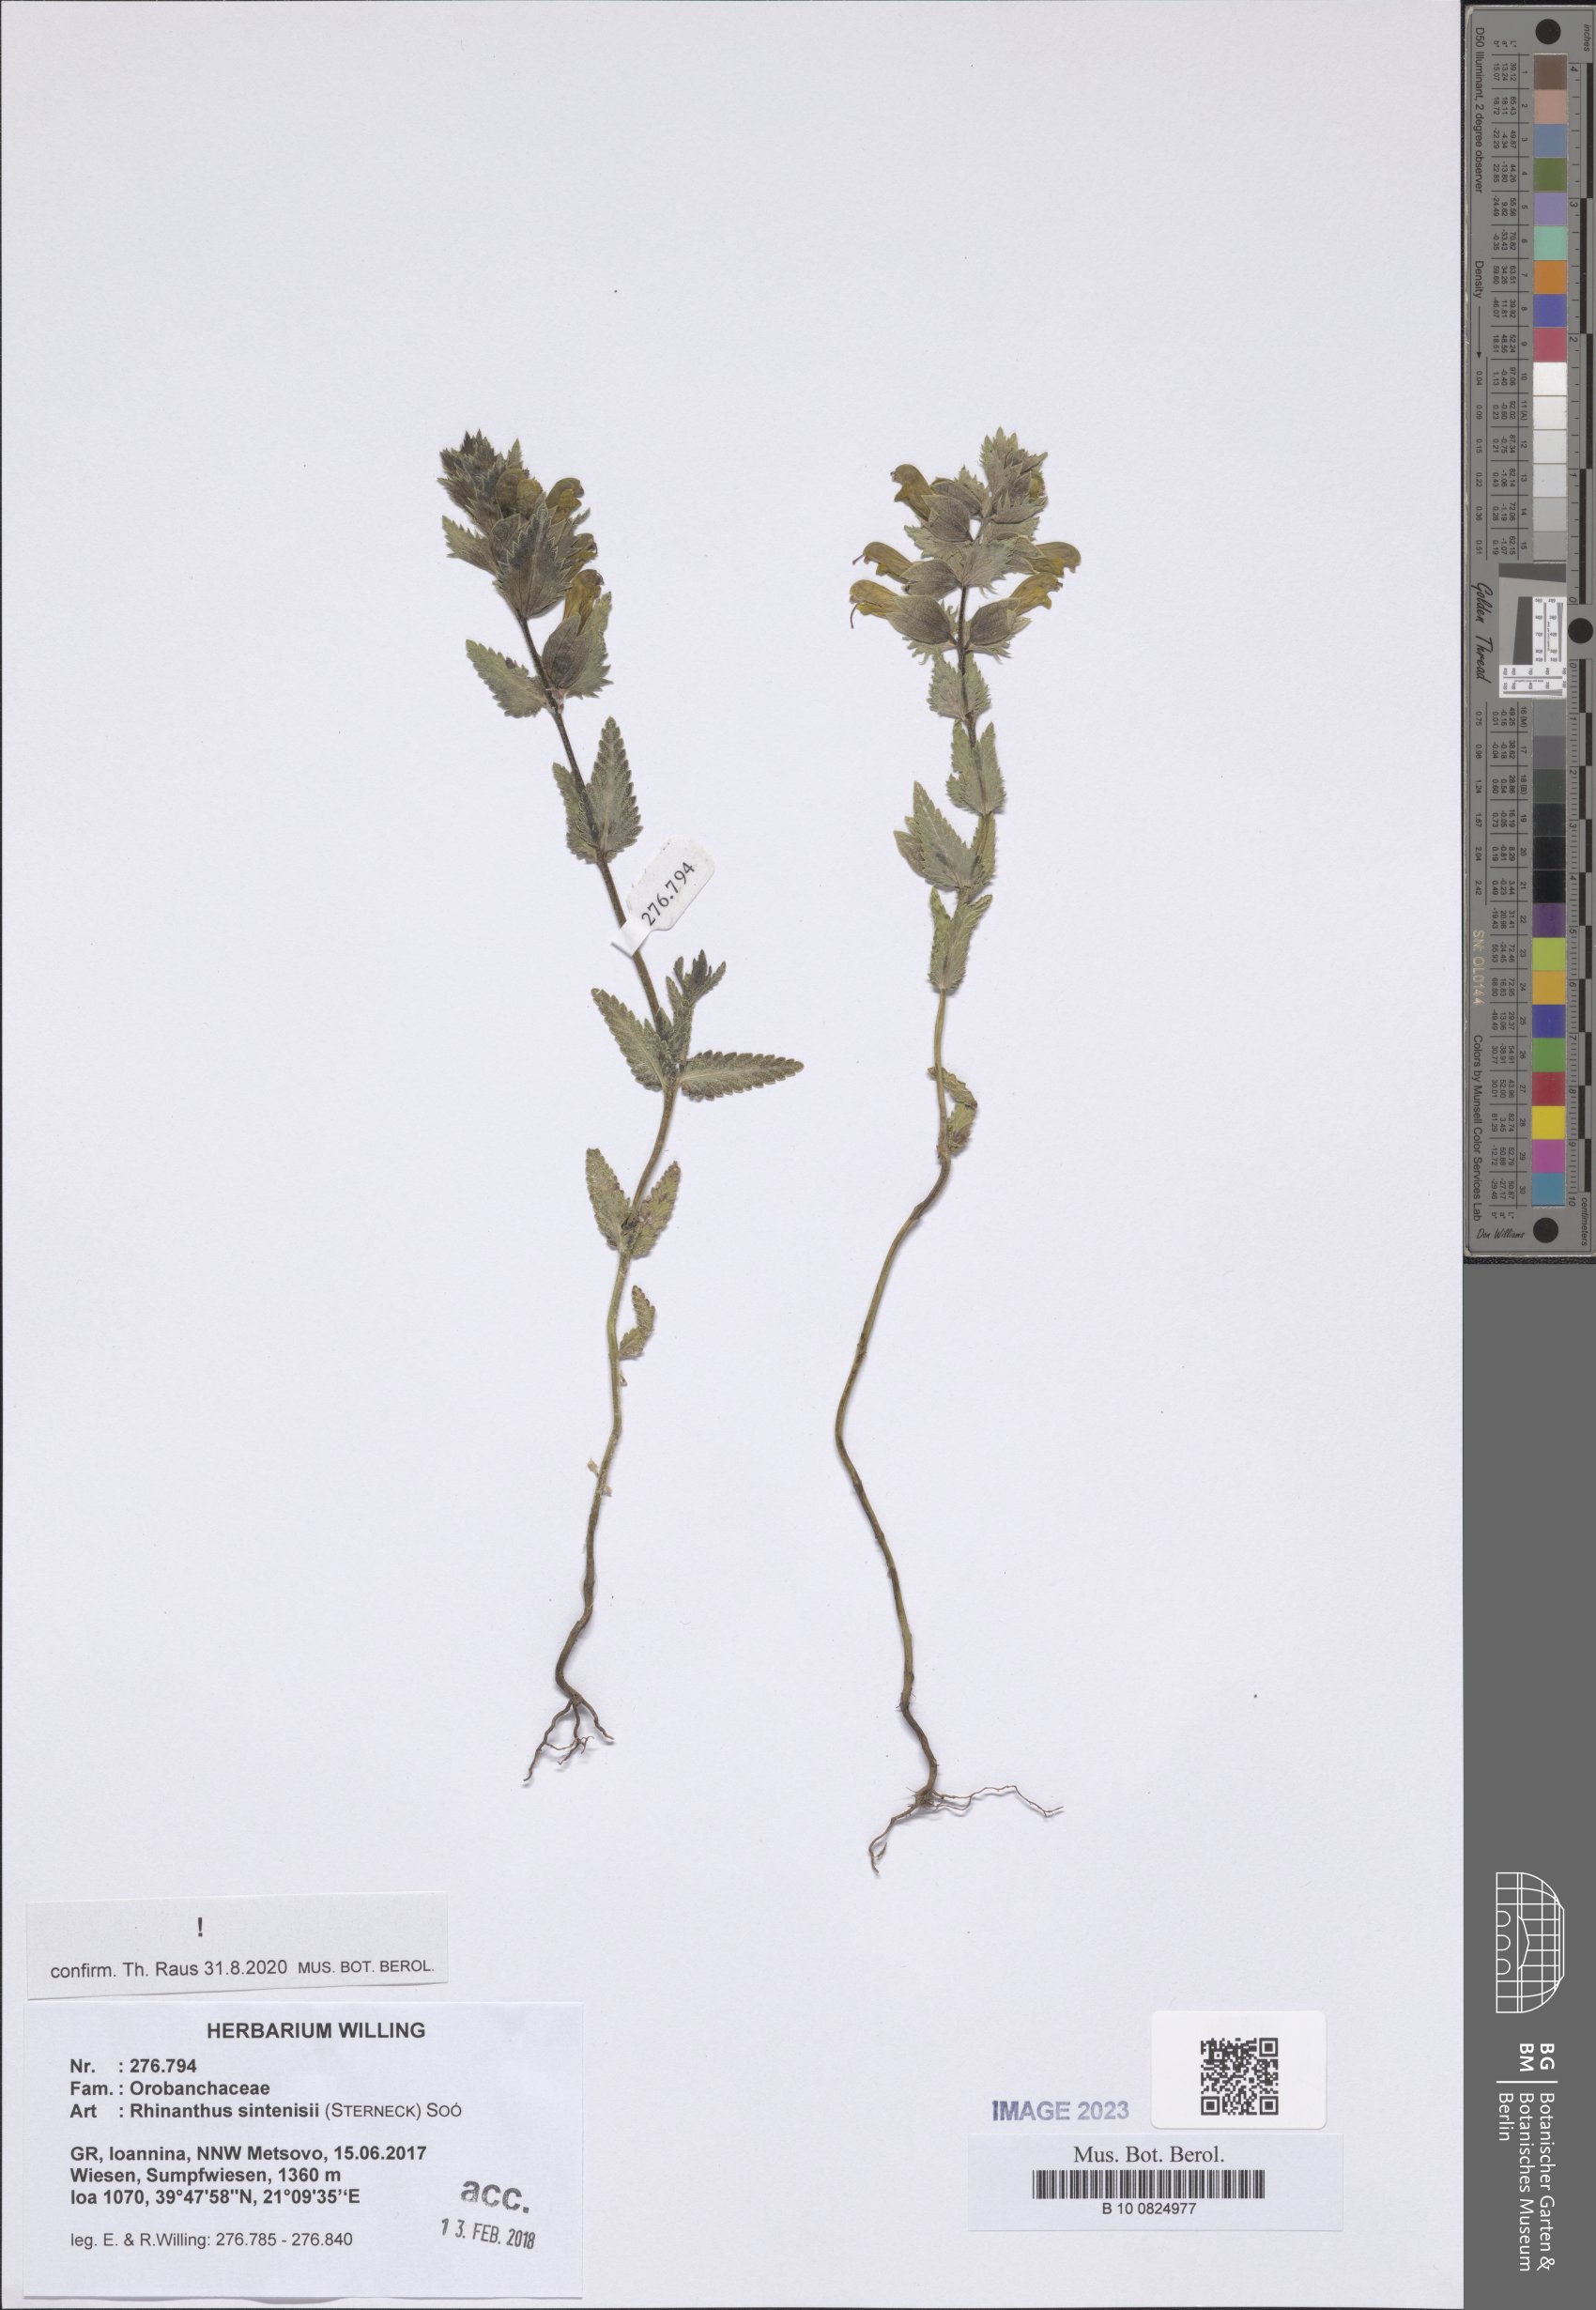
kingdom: Plantae
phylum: Tracheophyta
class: Magnoliopsida
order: Lamiales
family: Orobanchaceae
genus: Rhinanthus
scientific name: Rhinanthus sintenisii
